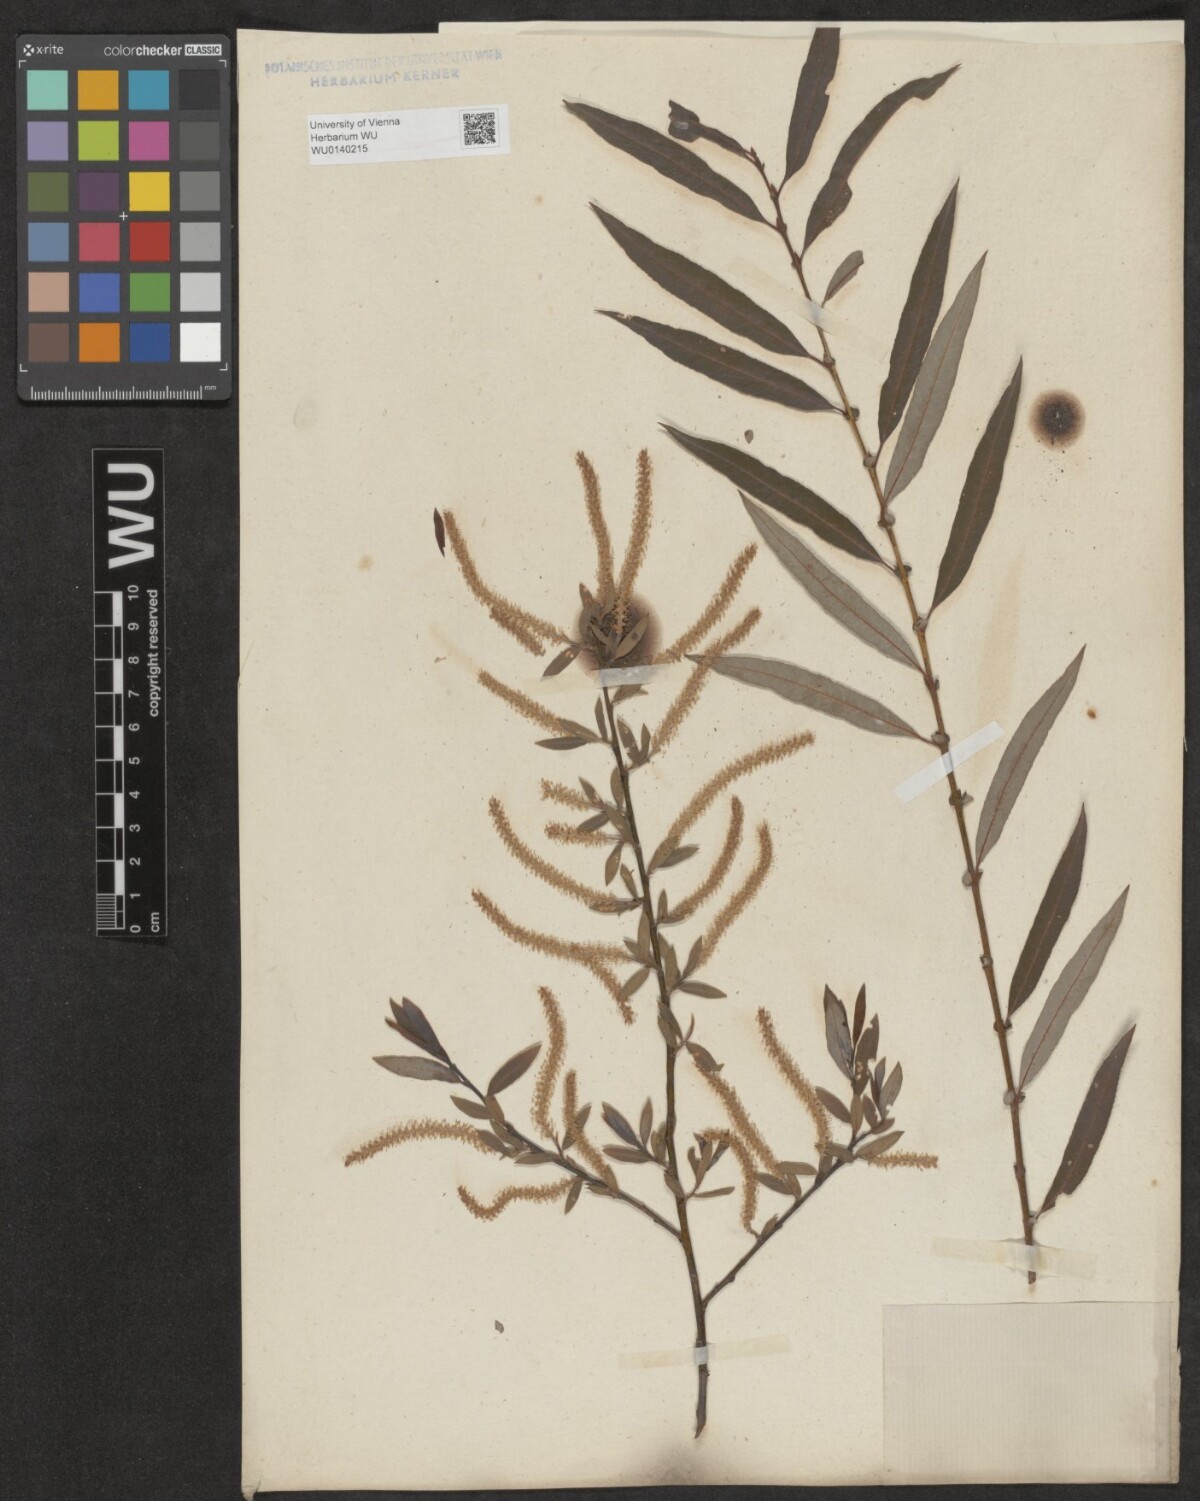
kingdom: Plantae
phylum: Tracheophyta
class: Magnoliopsida
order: Malpighiales
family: Salicaceae
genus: Salix
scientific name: Salix triandra
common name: Almond willow
